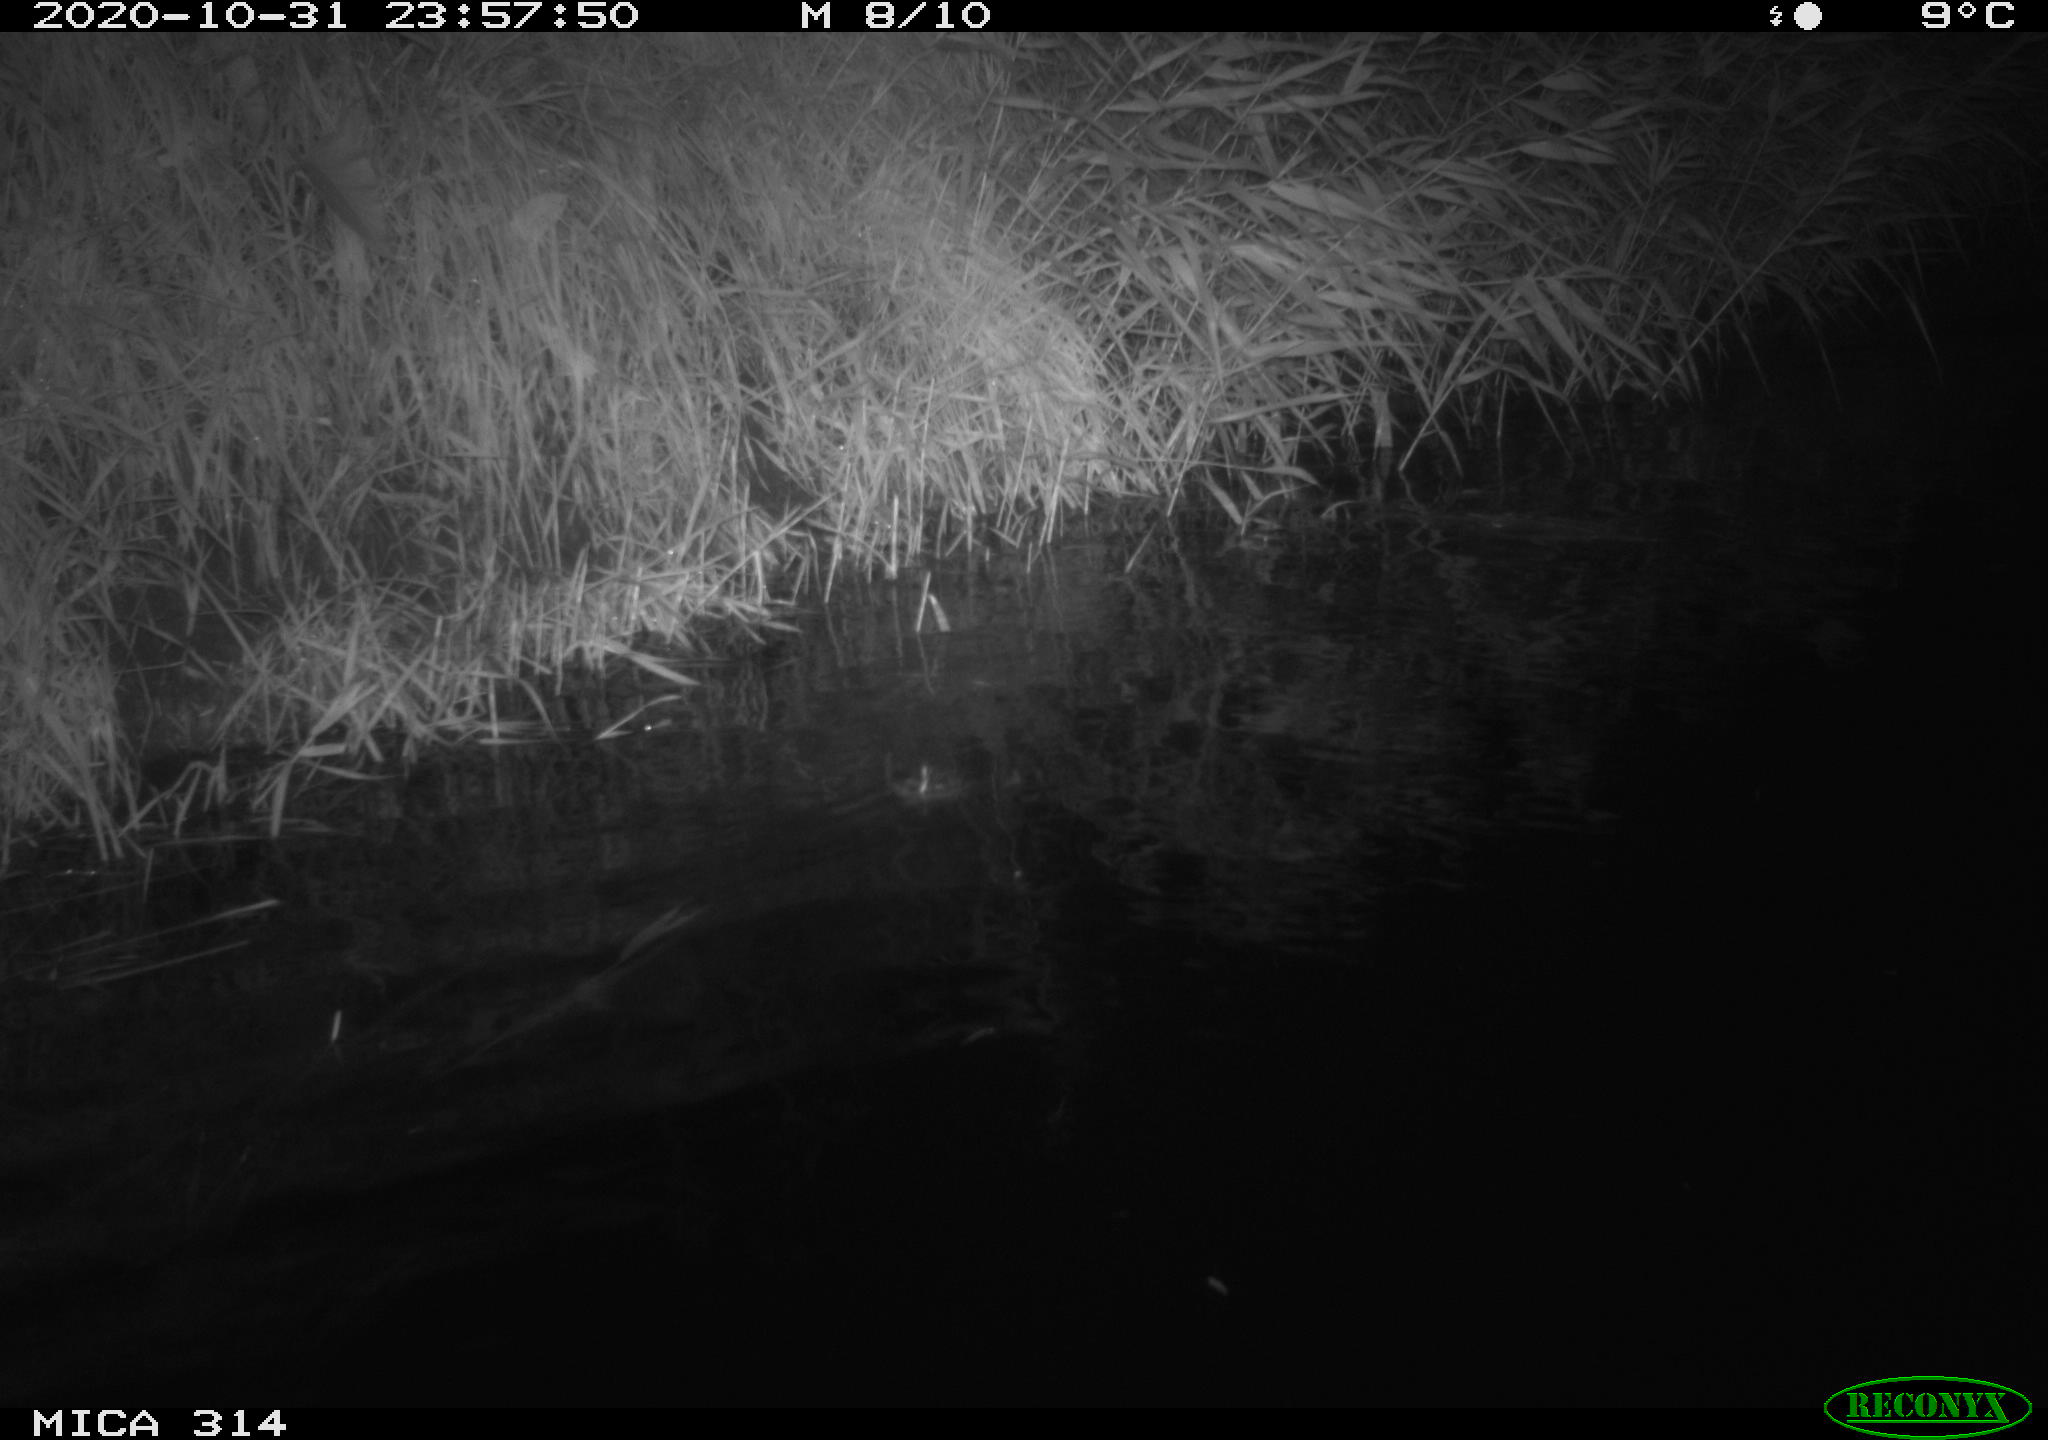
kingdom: Animalia
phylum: Chordata
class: Mammalia
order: Rodentia
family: Muridae
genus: Rattus
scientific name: Rattus norvegicus
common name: Brown rat
